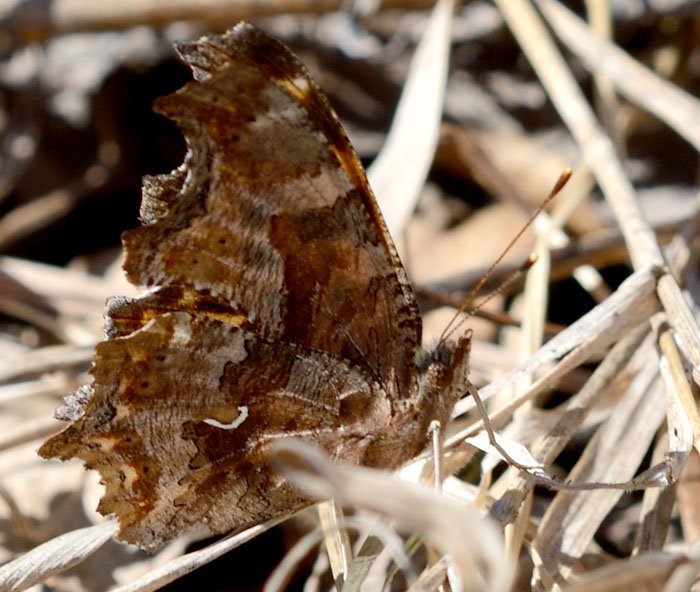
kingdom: Animalia
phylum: Arthropoda
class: Insecta
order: Lepidoptera
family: Nymphalidae
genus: Polygonia
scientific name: Polygonia comma
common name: Eastern Comma
